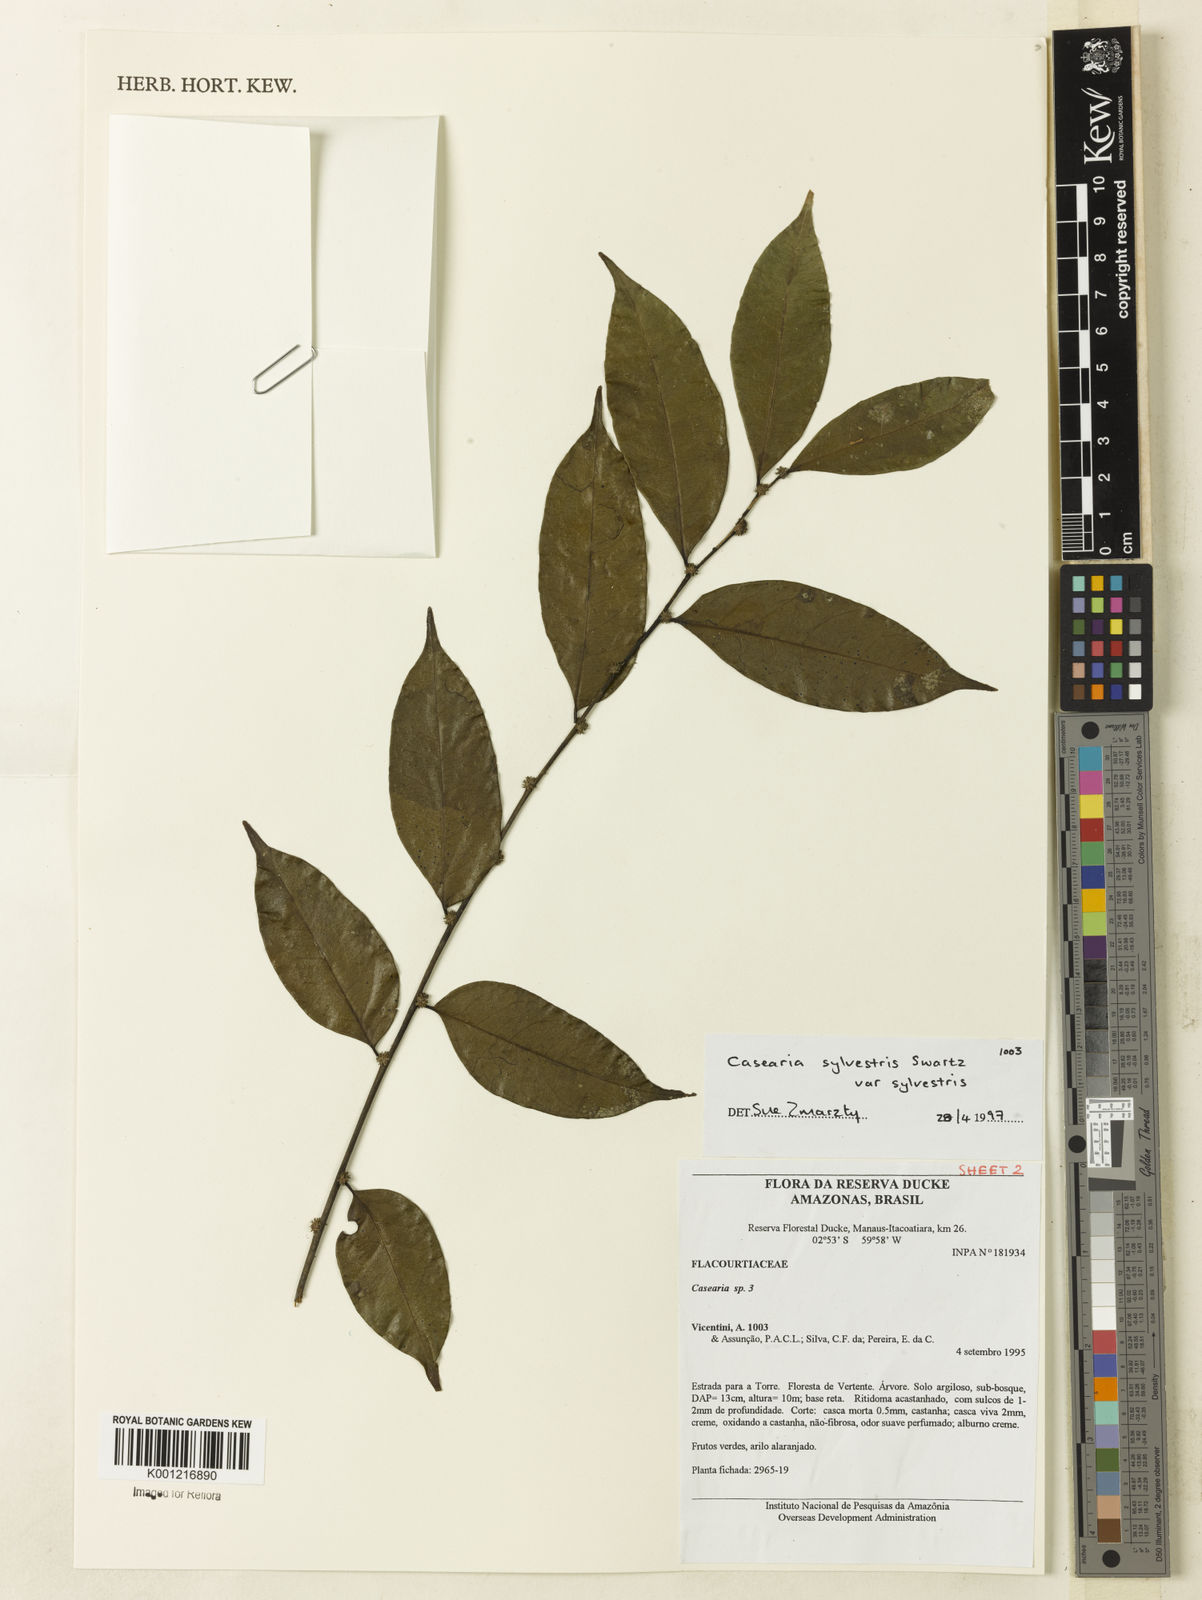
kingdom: Plantae
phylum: Tracheophyta
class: Magnoliopsida
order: Malpighiales
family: Salicaceae
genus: Casearia
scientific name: Casearia sylvestris
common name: Wild sage
